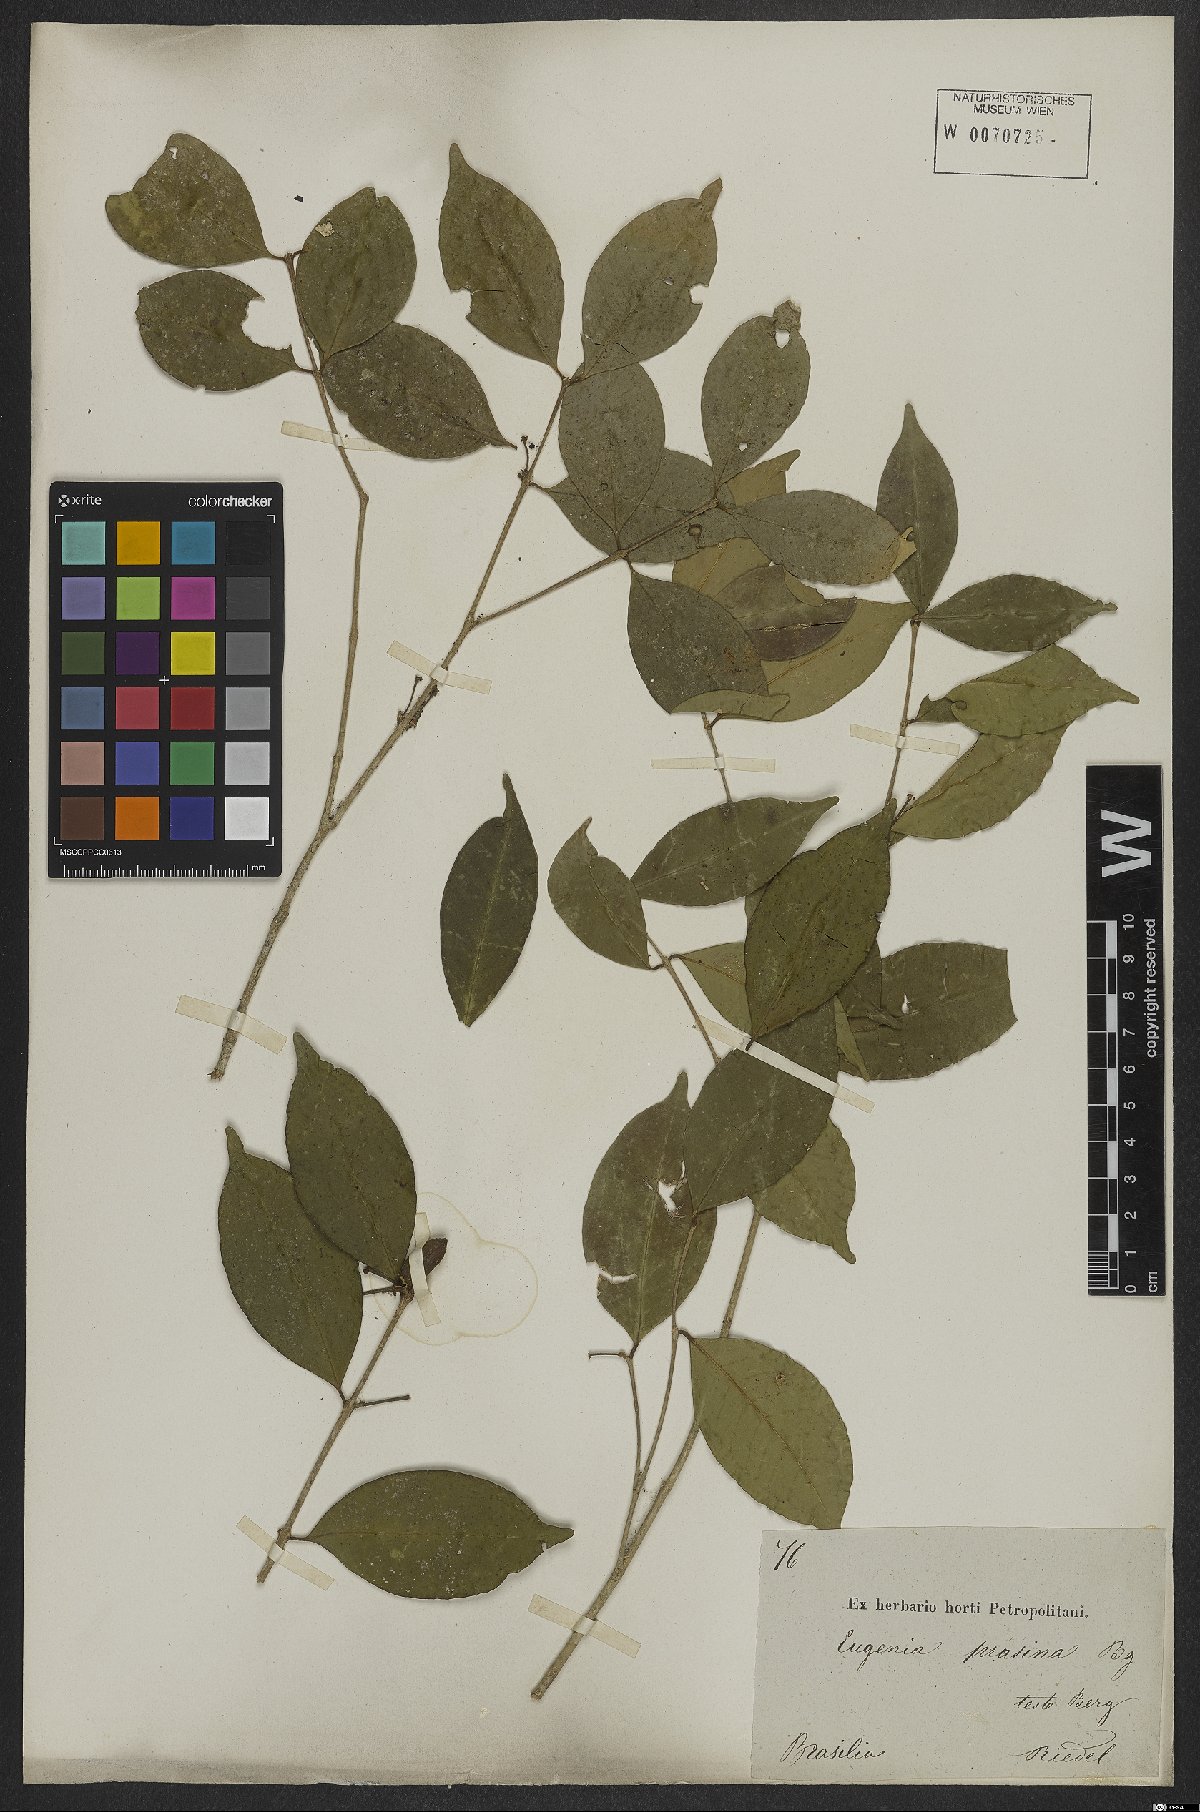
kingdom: Plantae
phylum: Tracheophyta
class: Magnoliopsida
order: Myrtales
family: Myrtaceae
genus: Eugenia
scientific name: Eugenia pluriflora
